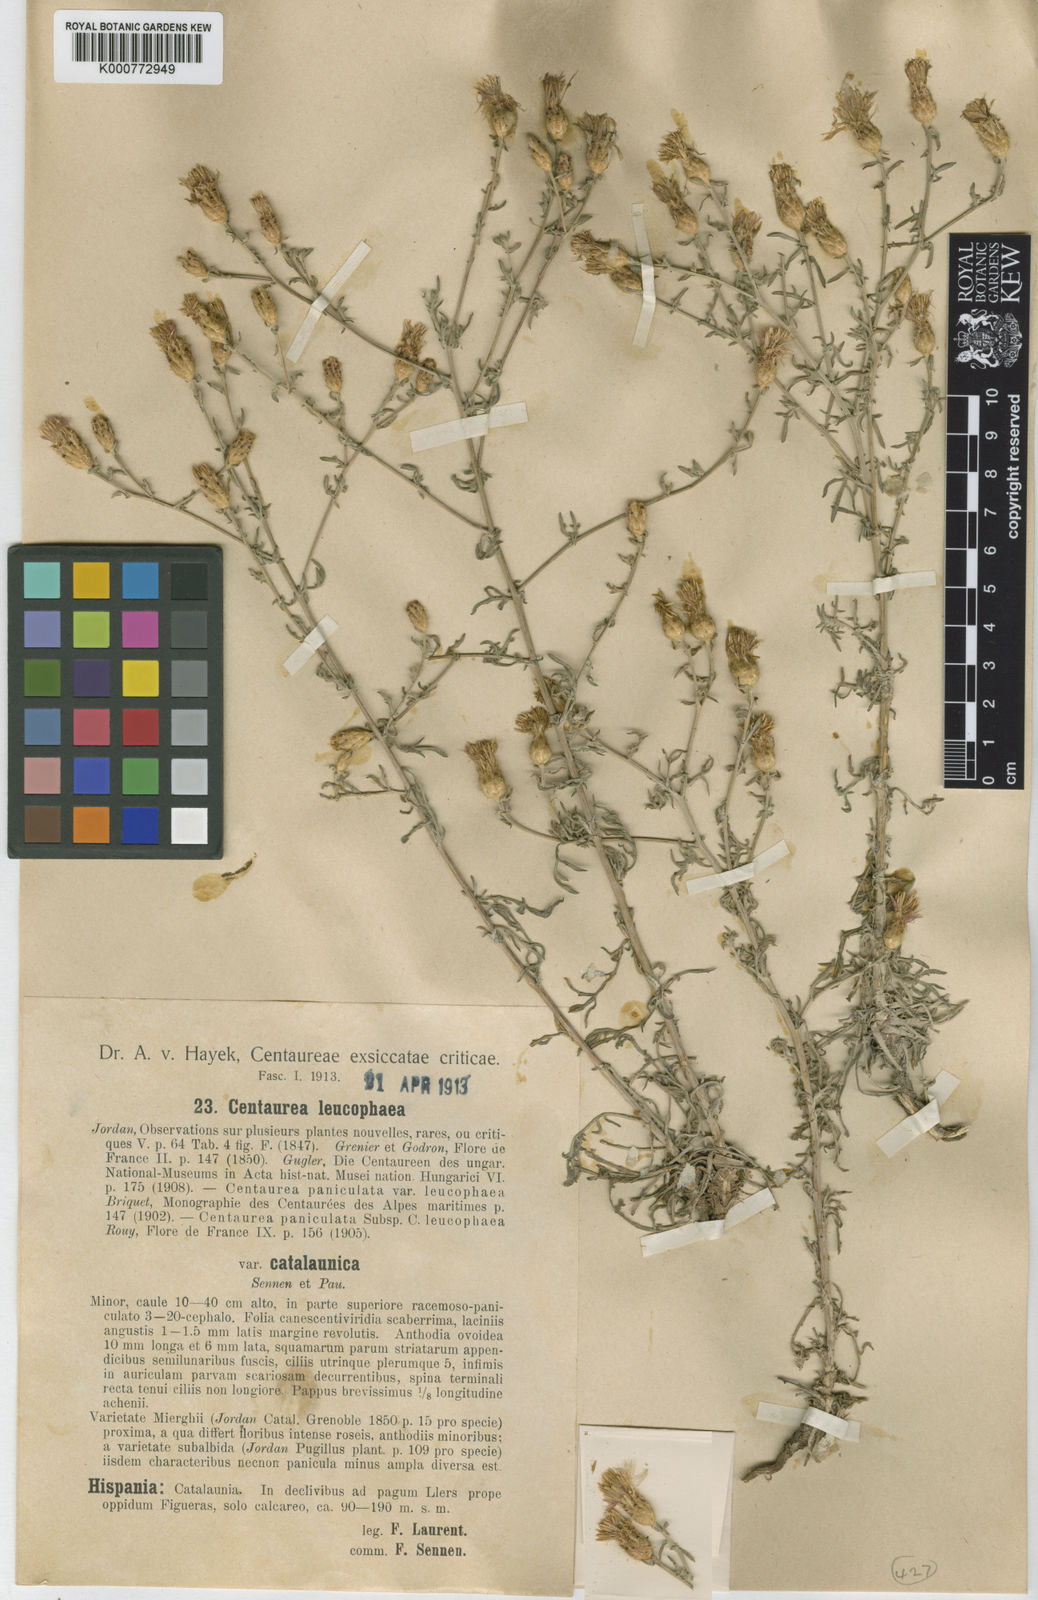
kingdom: Plantae
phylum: Tracheophyta
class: Magnoliopsida
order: Asterales
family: Asteraceae
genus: Centaurea
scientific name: Centaurea leucophaea
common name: Whitish-leaved knapweed
